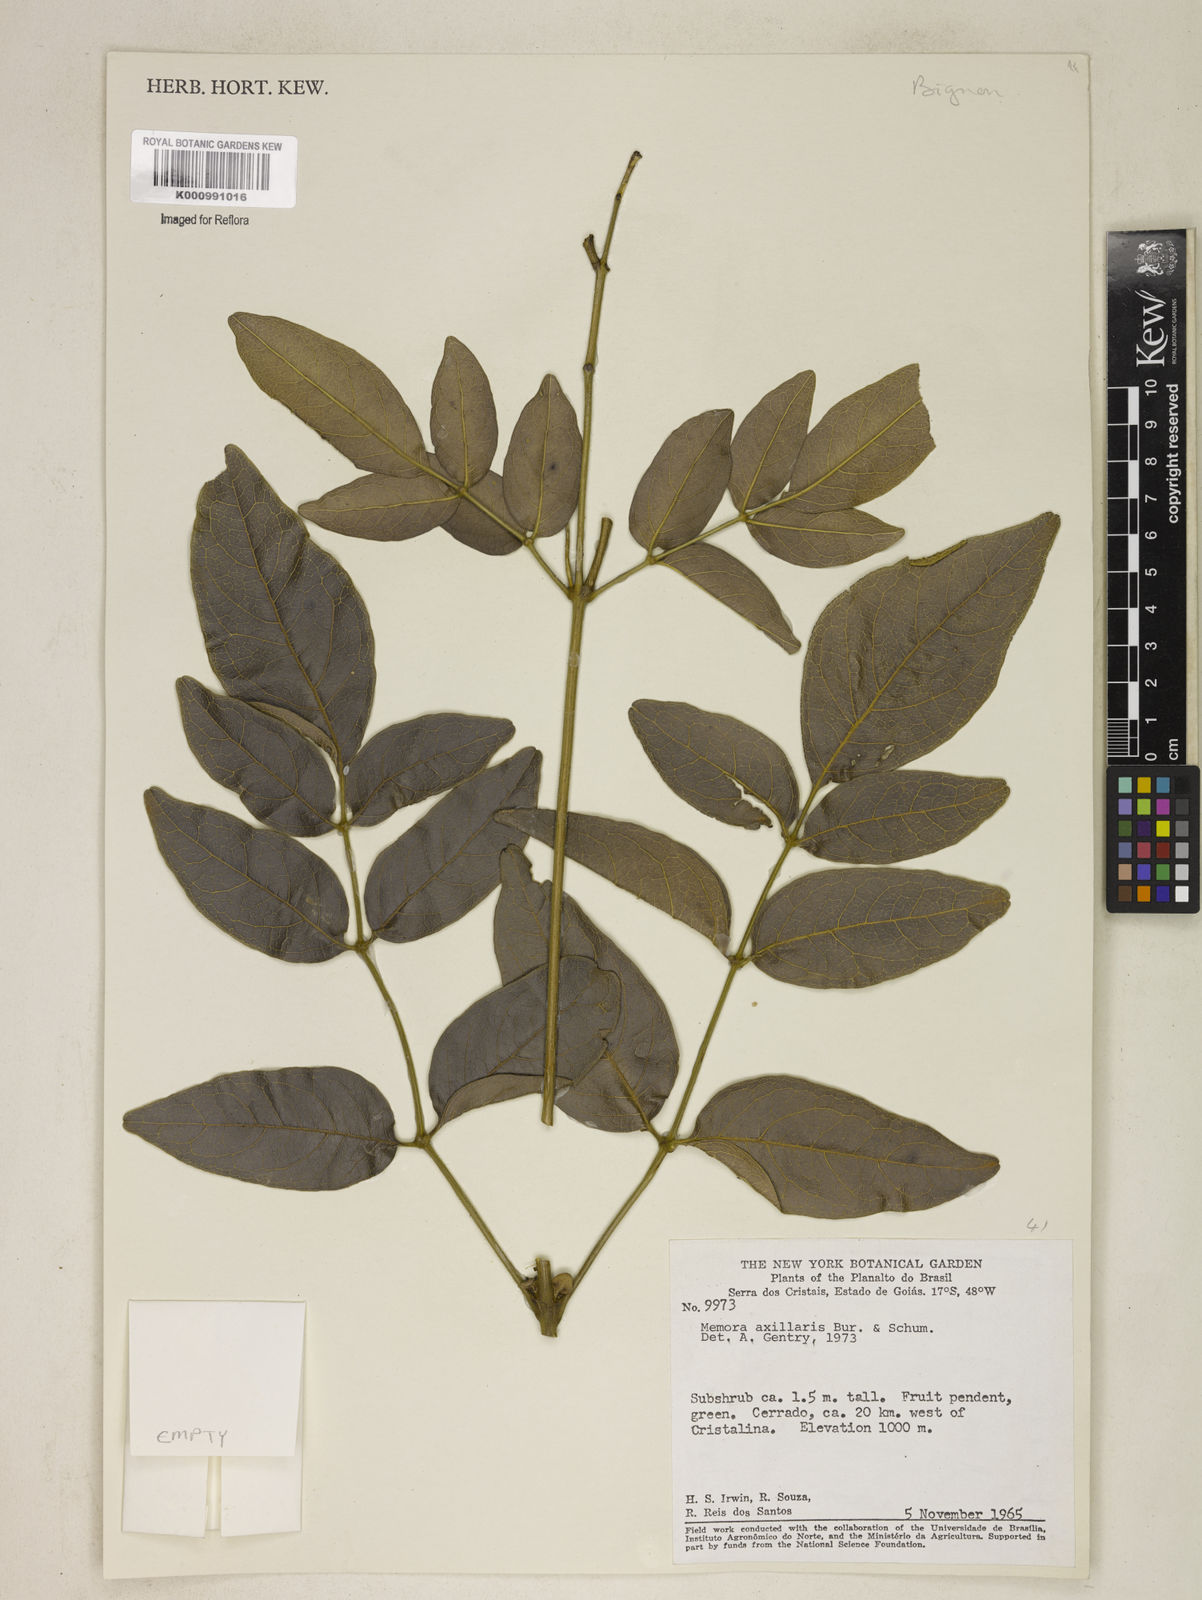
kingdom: Plantae
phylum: Tracheophyta
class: Magnoliopsida
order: Lamiales
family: Bignoniaceae
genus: Adenocalymma
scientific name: Adenocalymma axillare
